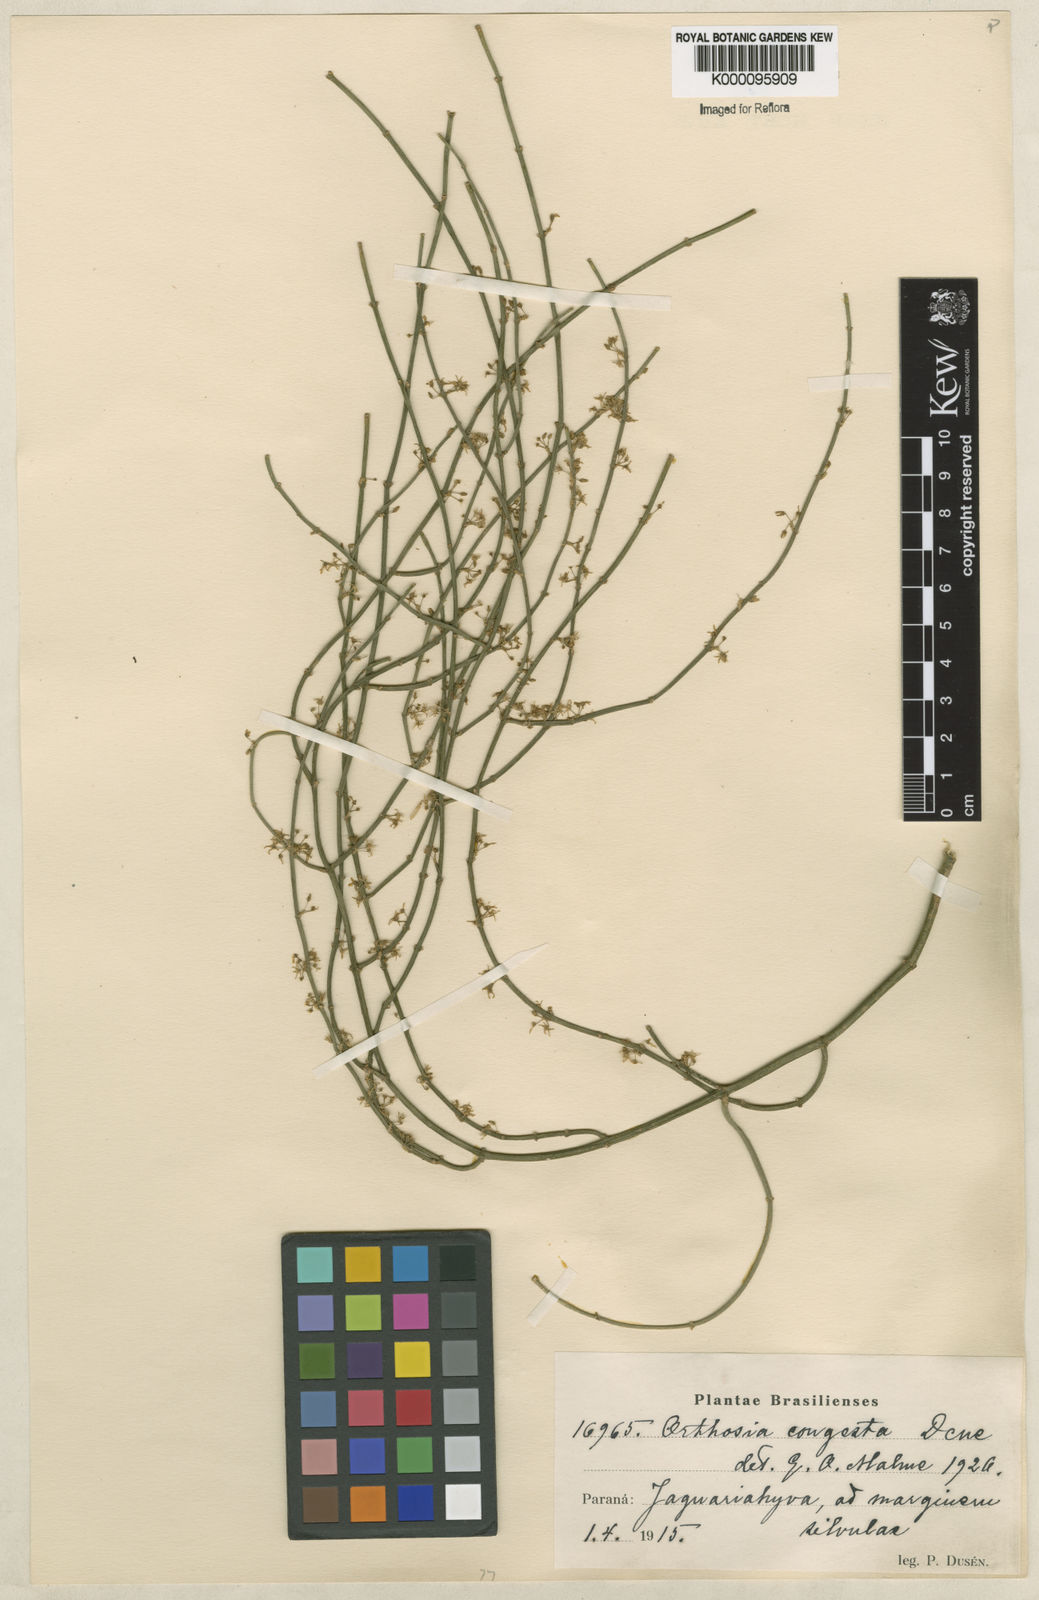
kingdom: Plantae
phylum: Tracheophyta
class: Magnoliopsida
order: Gentianales
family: Apocynaceae
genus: Orthosia
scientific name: Orthosia congesta
